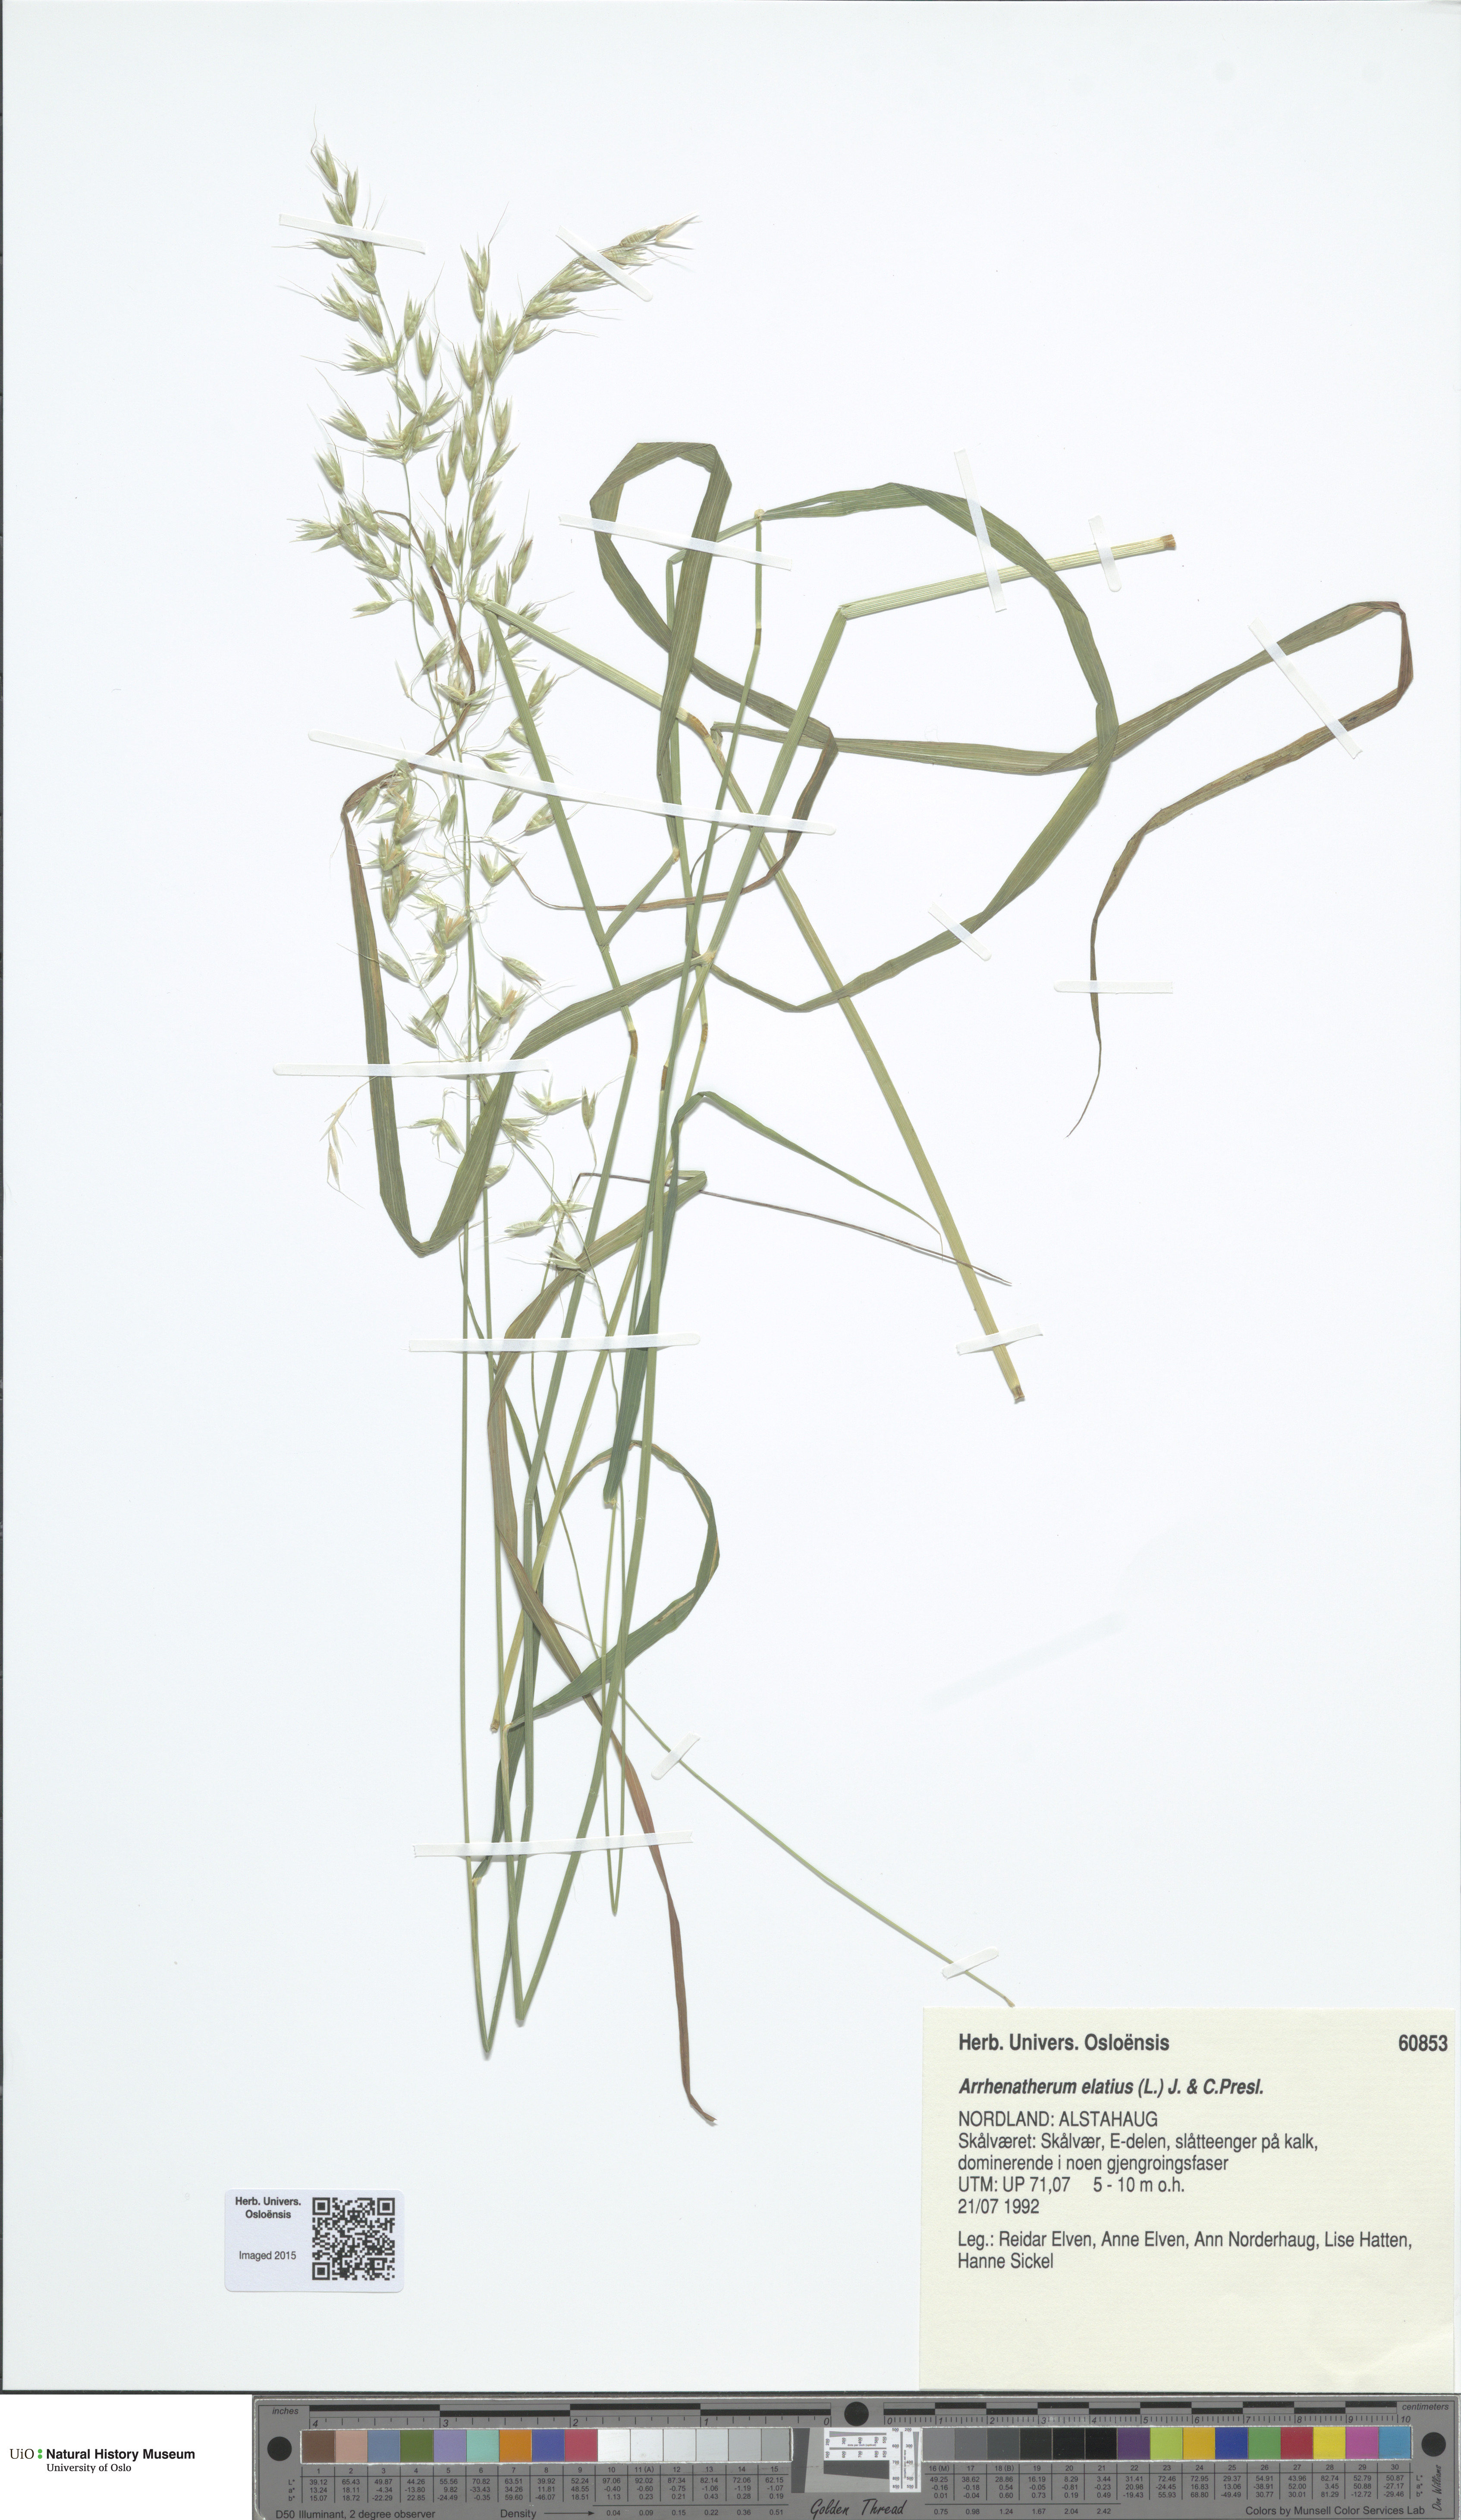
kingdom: Plantae
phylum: Tracheophyta
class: Liliopsida
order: Poales
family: Poaceae
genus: Arrhenatherum
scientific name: Arrhenatherum elatius
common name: Tall oatgrass
